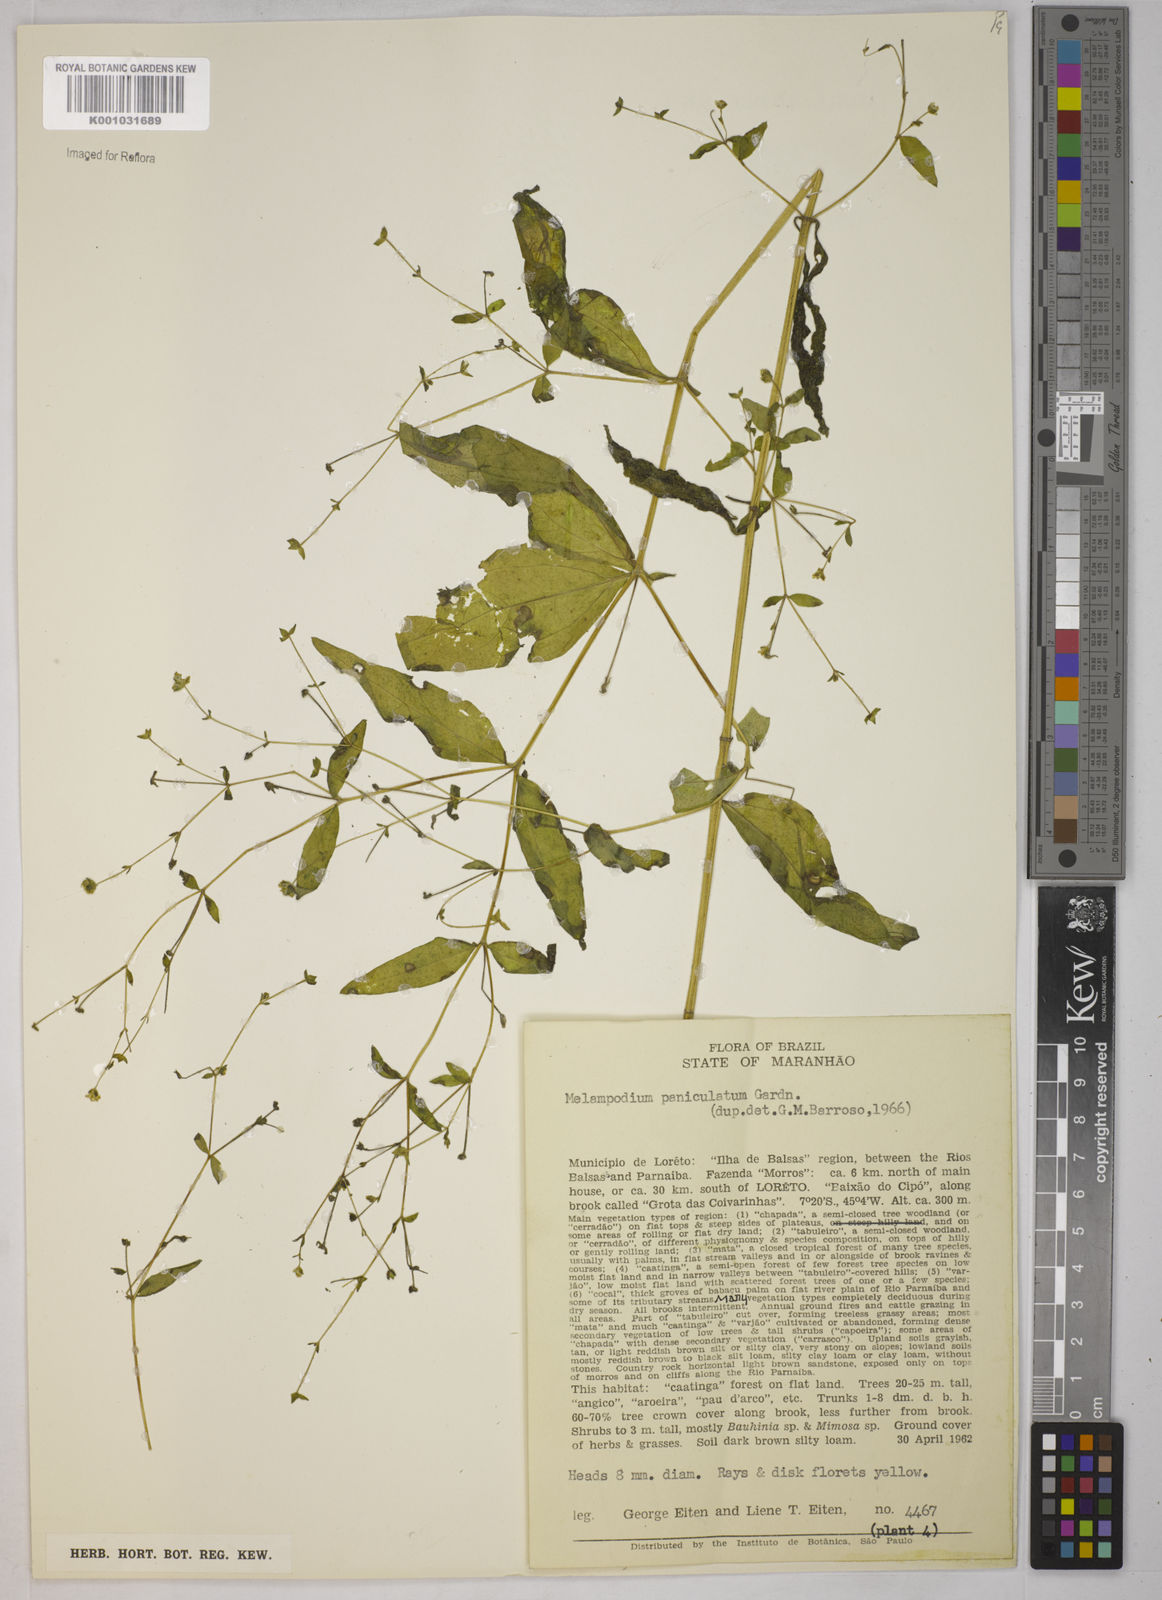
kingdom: Plantae
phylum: Tracheophyta
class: Magnoliopsida
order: Asterales
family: Asteraceae
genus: Melampodium
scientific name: Melampodium paniculatum
